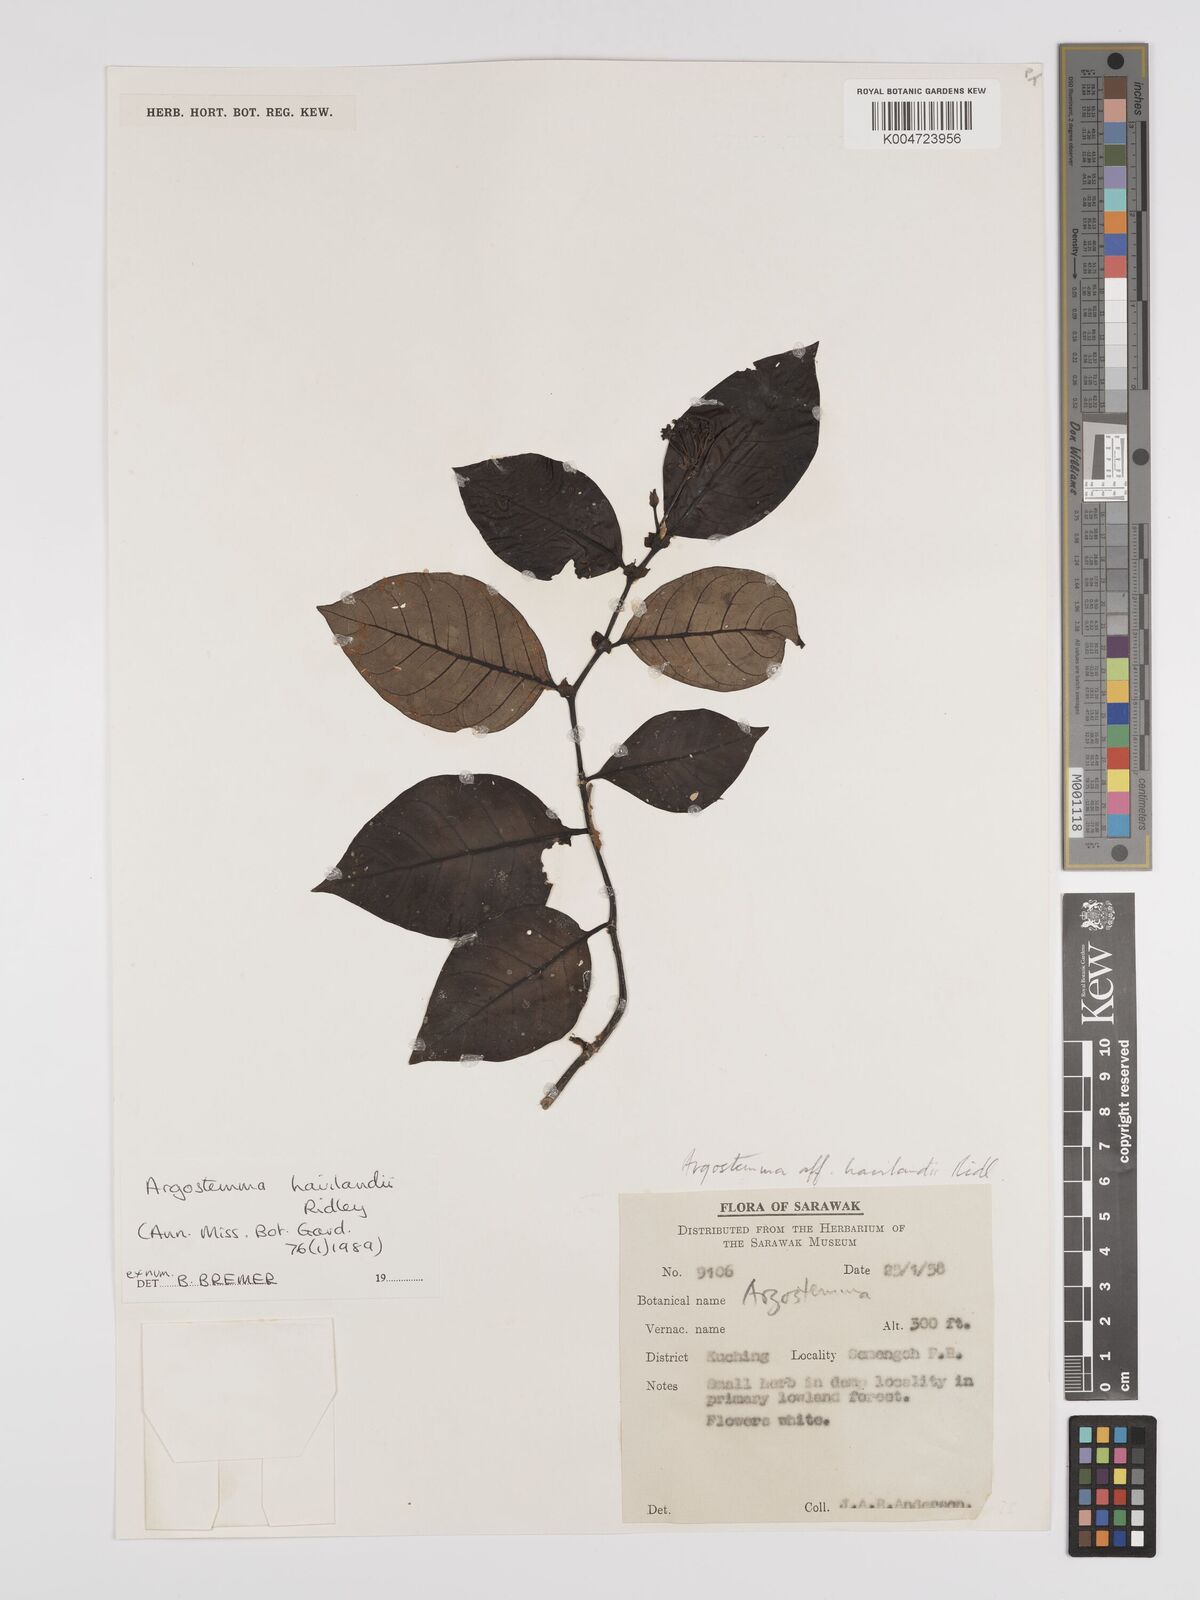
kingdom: Plantae
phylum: Tracheophyta
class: Magnoliopsida
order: Gentianales
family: Rubiaceae
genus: Argostemma
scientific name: Argostemma havilandii
